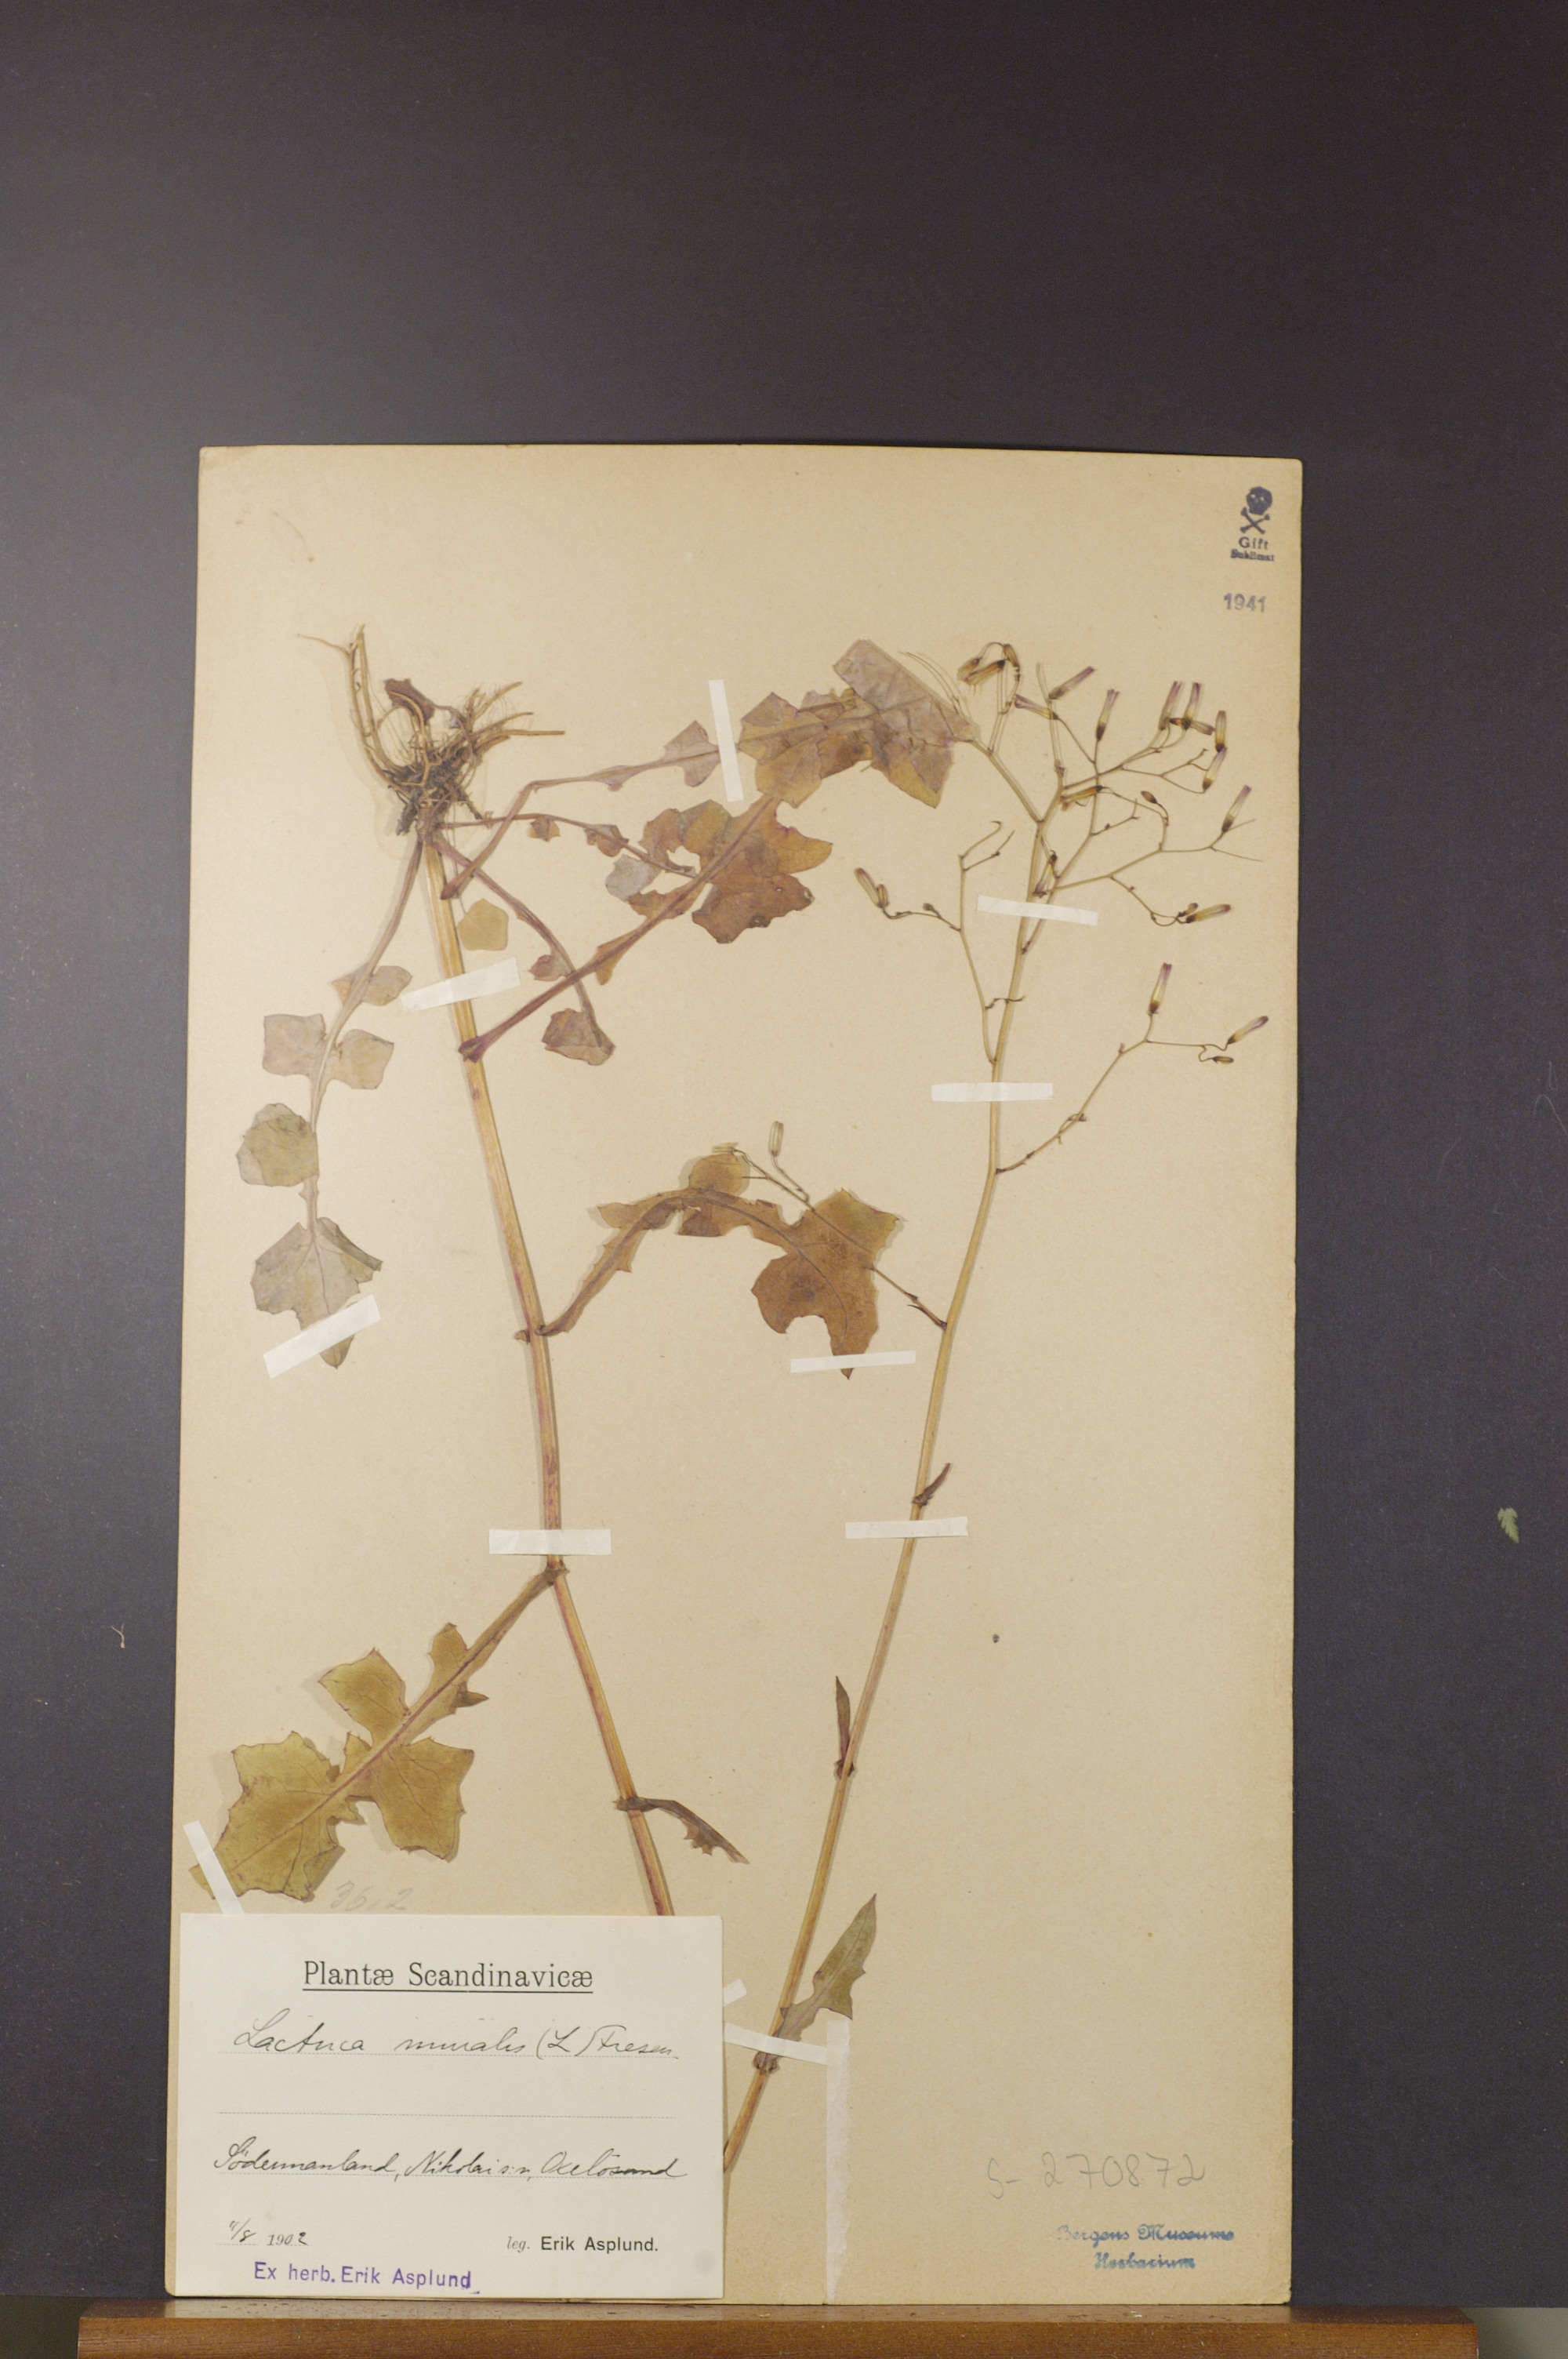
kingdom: Plantae
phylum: Tracheophyta
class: Magnoliopsida
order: Asterales
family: Asteraceae
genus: Mycelis
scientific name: Mycelis muralis
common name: Wall lettuce
